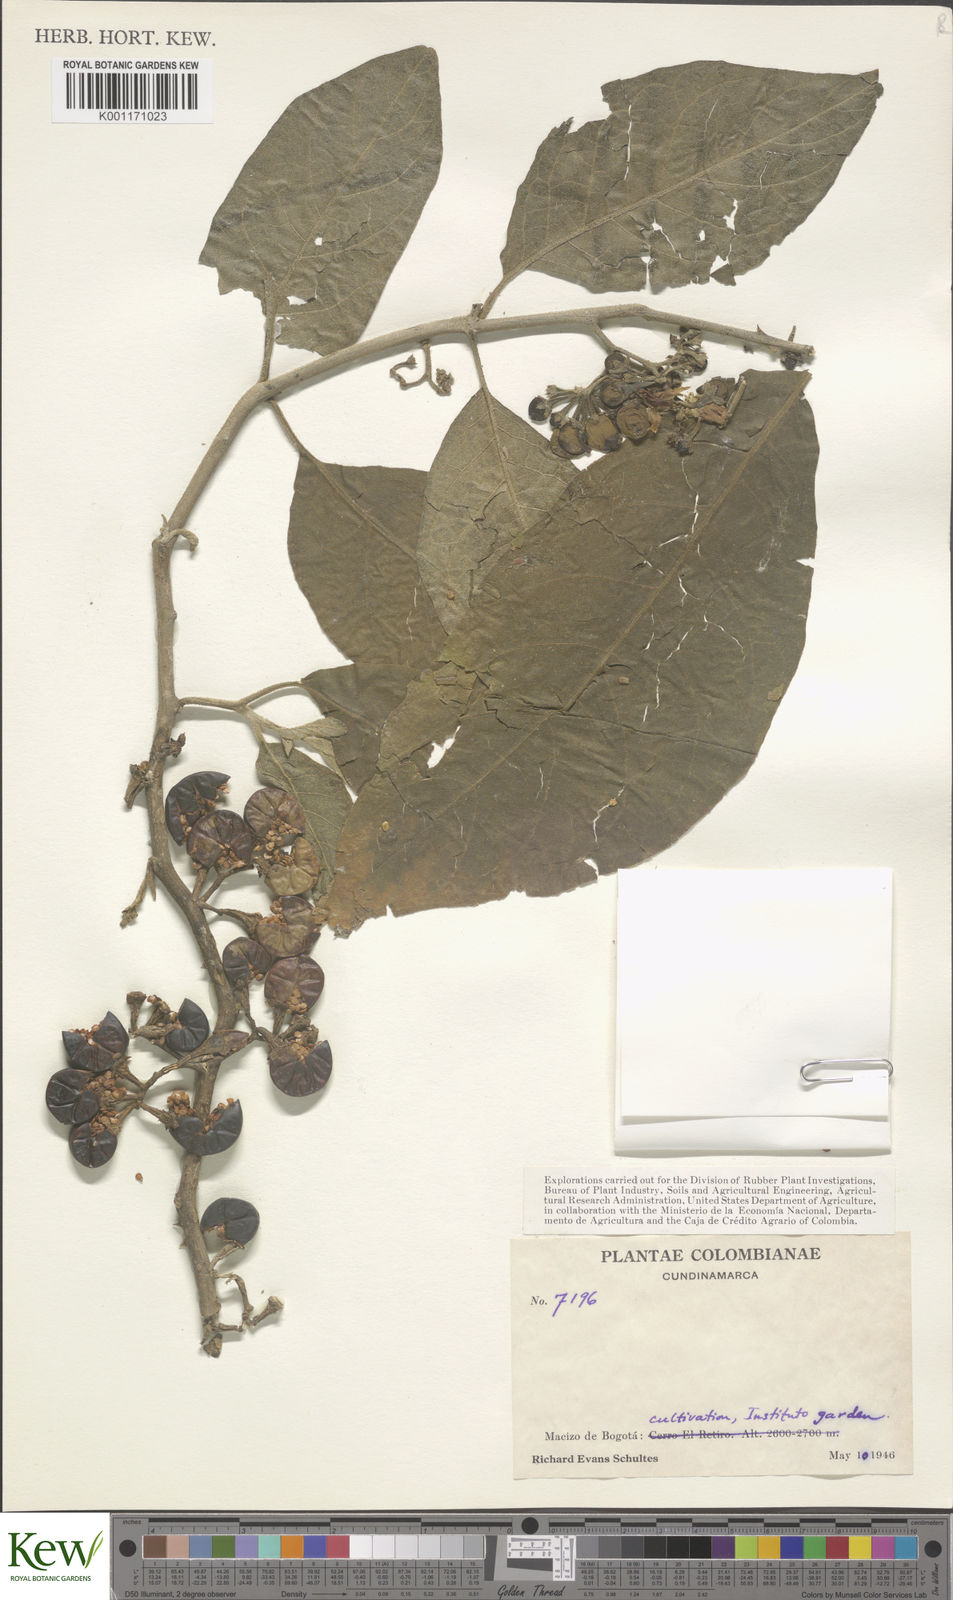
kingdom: Plantae
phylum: Tracheophyta
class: Magnoliopsida
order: Solanales
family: Solanaceae
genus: Solanum
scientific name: Solanum
